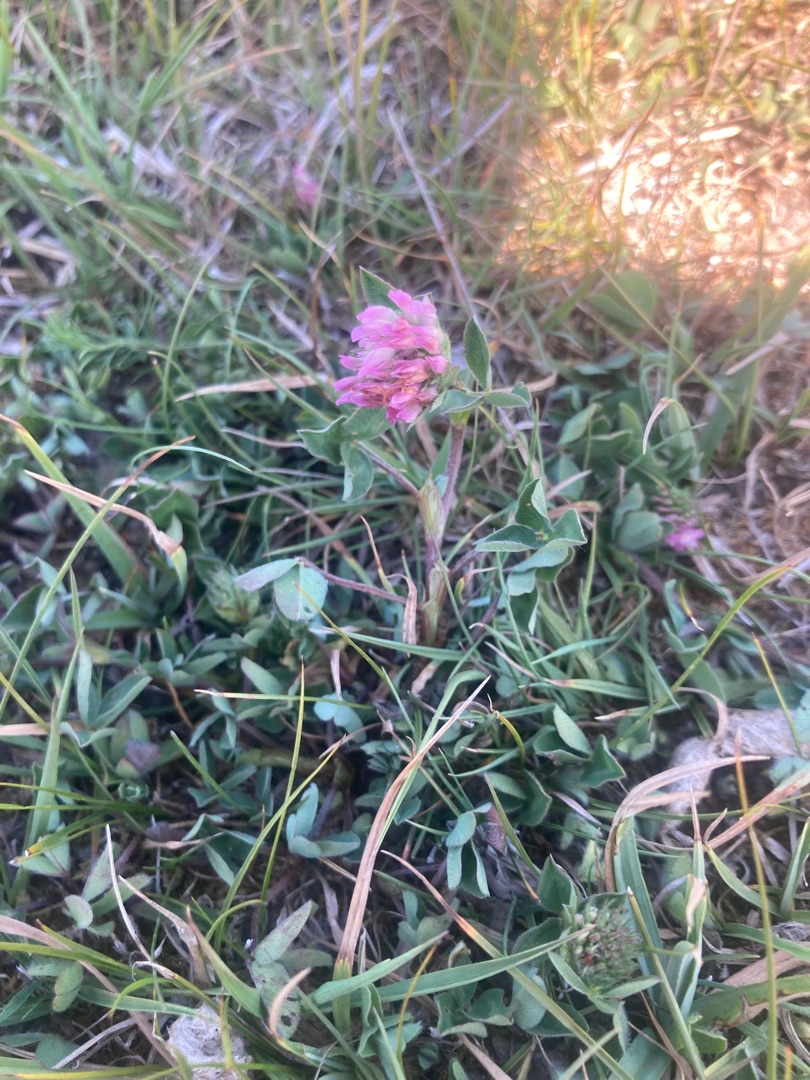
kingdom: Plantae
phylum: Tracheophyta
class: Magnoliopsida
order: Fabales
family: Fabaceae
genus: Trifolium
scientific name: Trifolium pratense
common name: Rød-kløver
